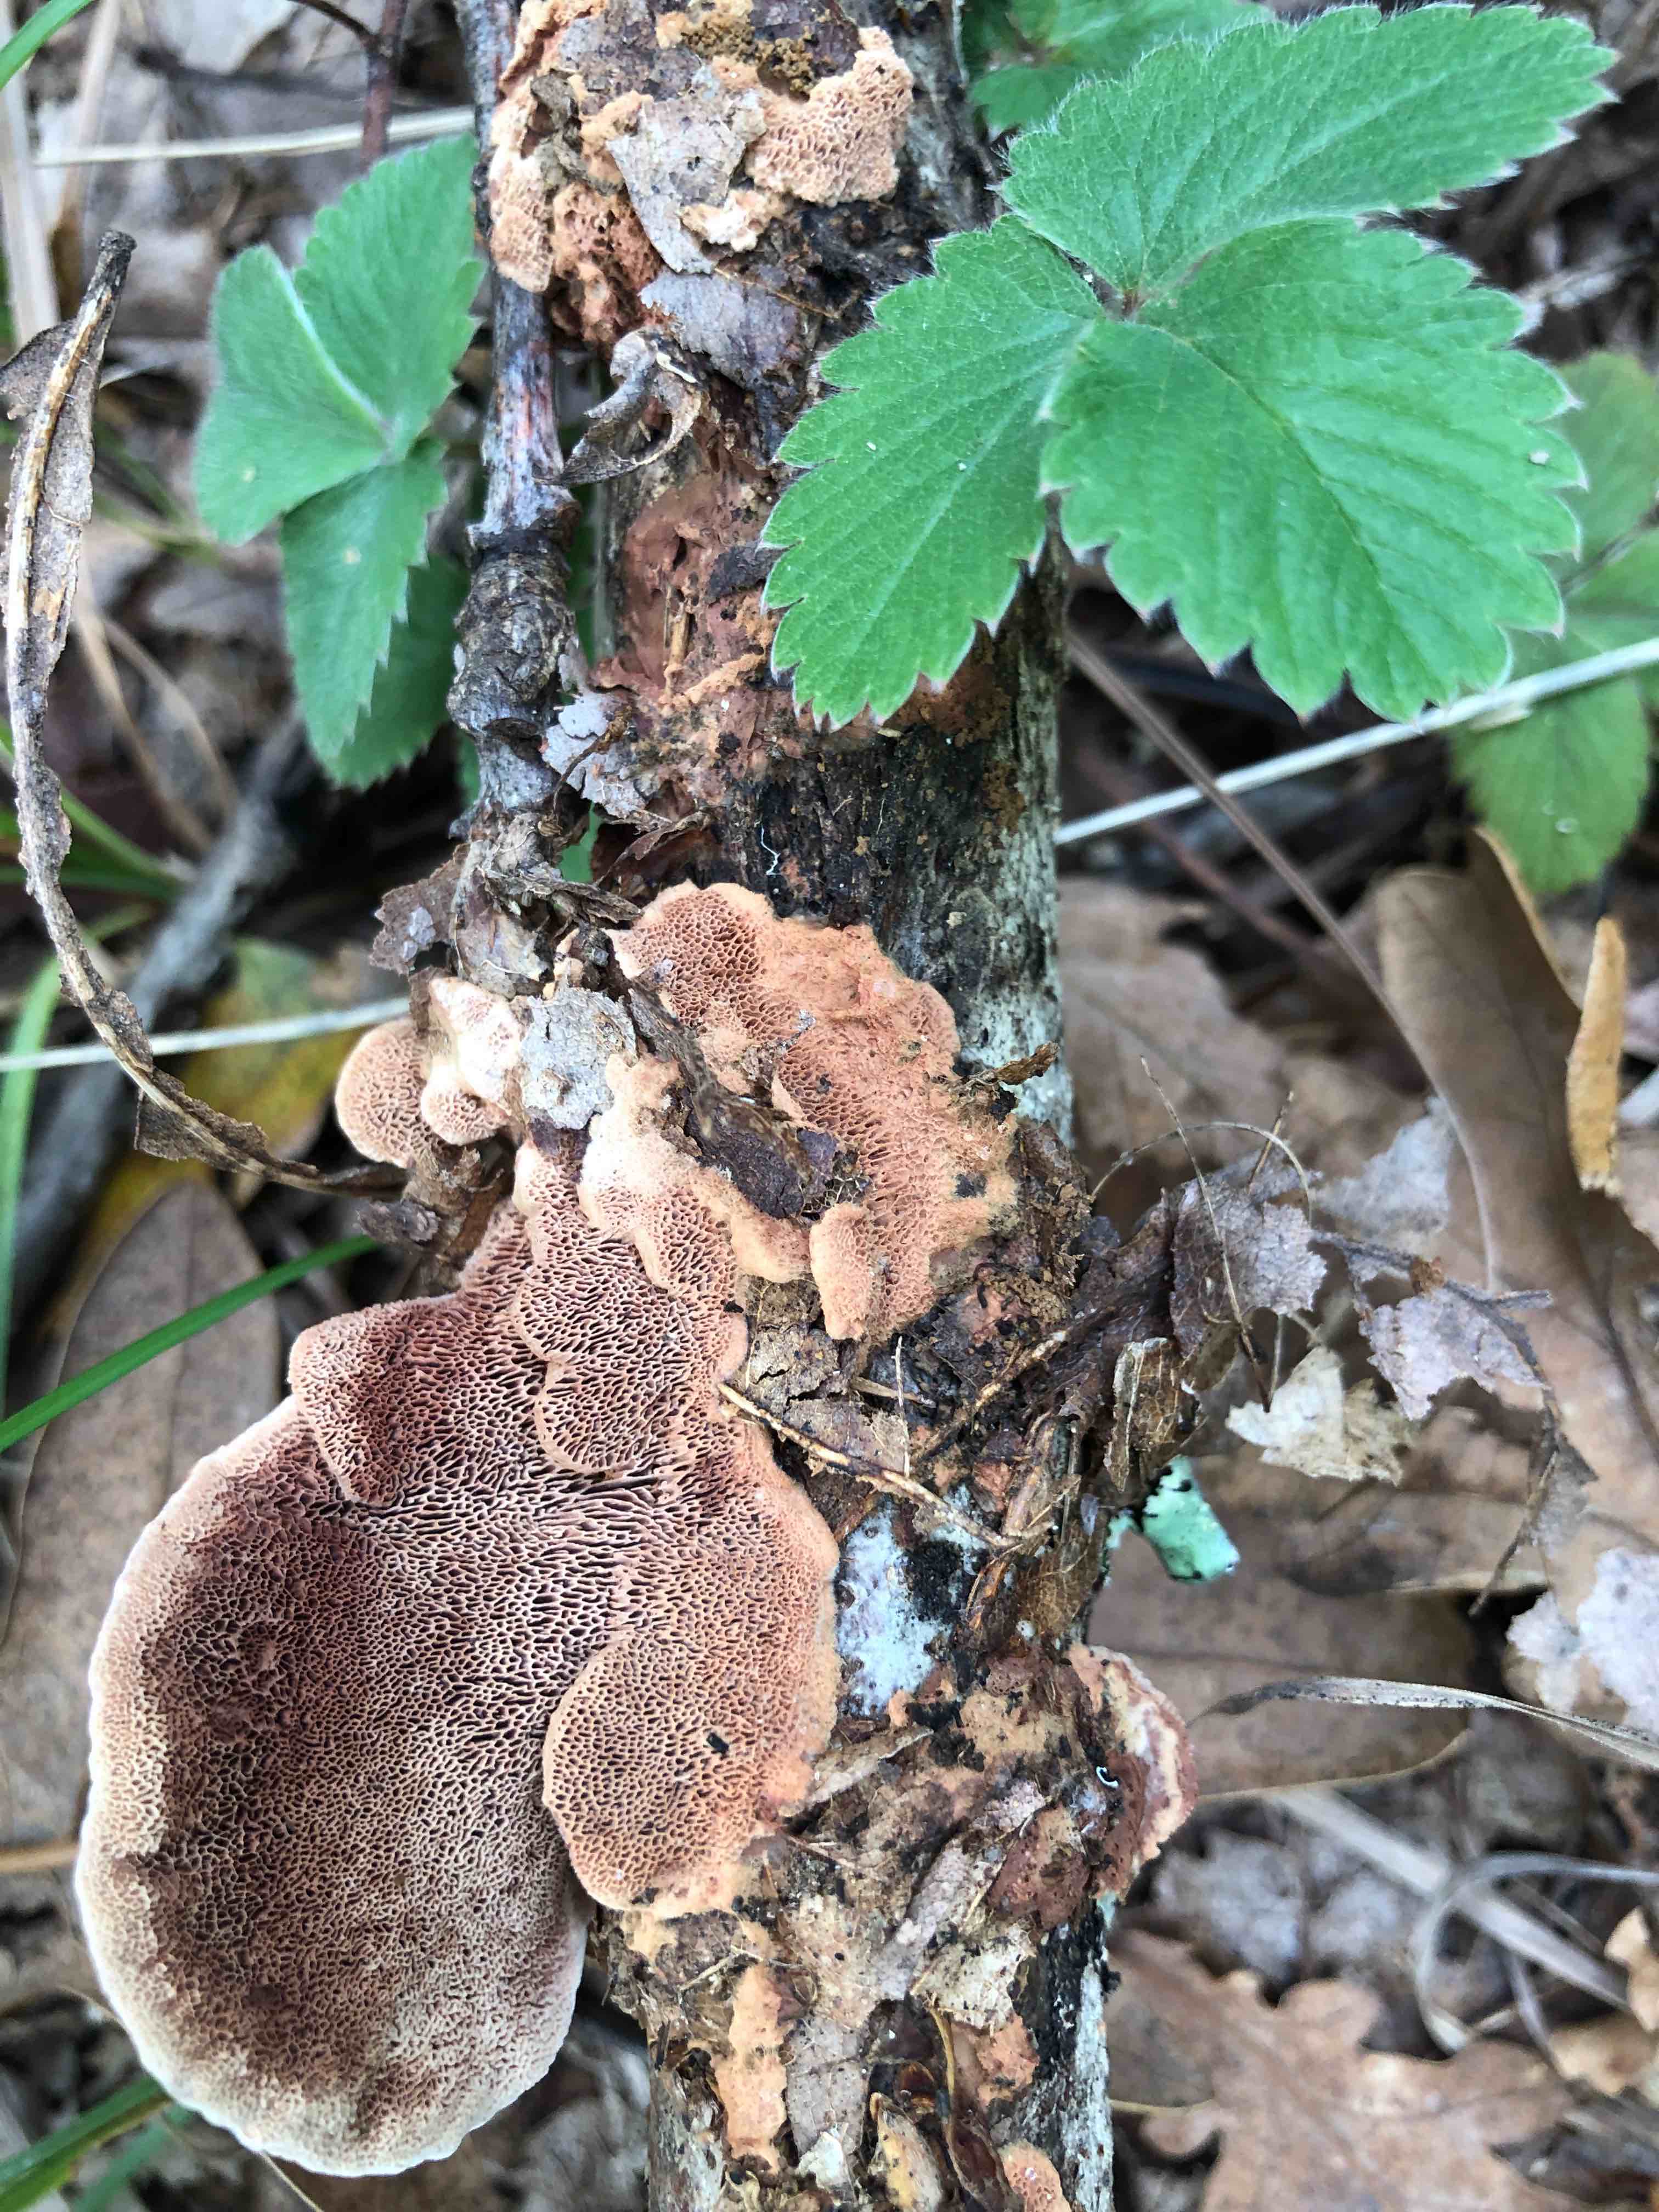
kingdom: Fungi
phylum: Basidiomycota
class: Agaricomycetes
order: Polyporales
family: Phanerochaetaceae
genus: Hapalopilus
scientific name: Hapalopilus rutilans
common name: rødlig okkerporesvamp
